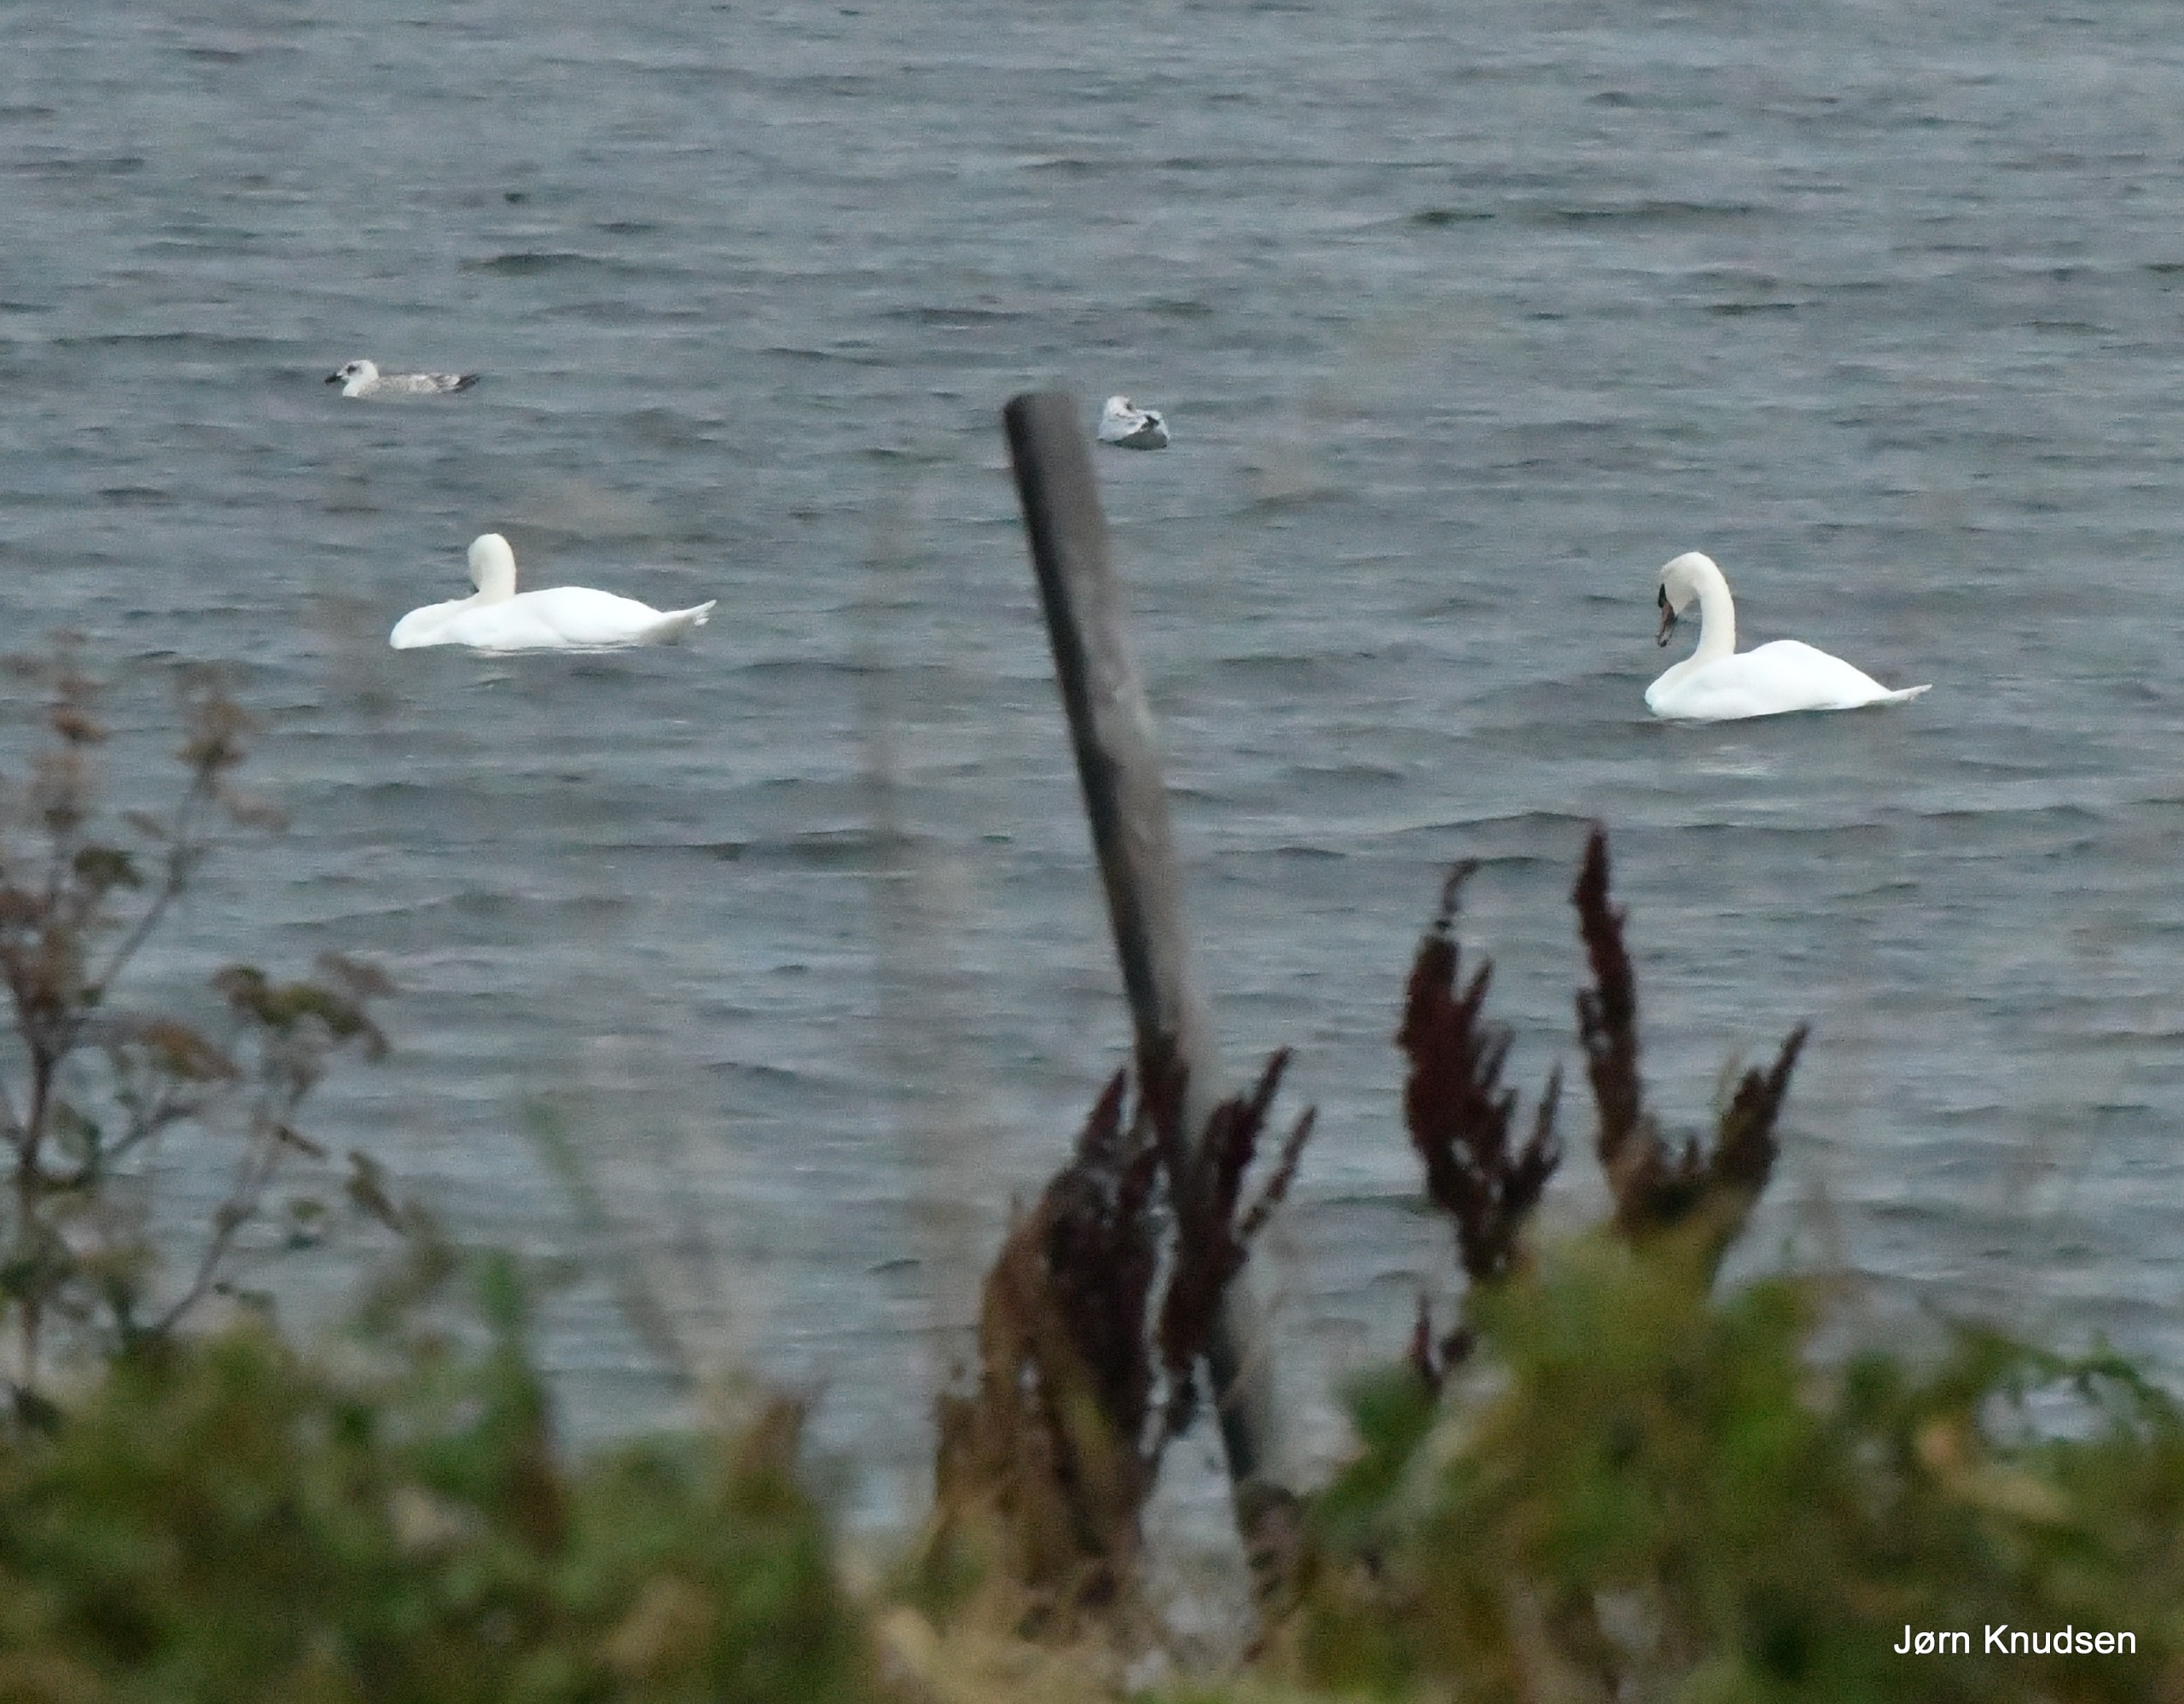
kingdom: Animalia
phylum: Chordata
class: Aves
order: Anseriformes
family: Anatidae
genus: Cygnus
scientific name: Cygnus olor
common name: Knopsvane
